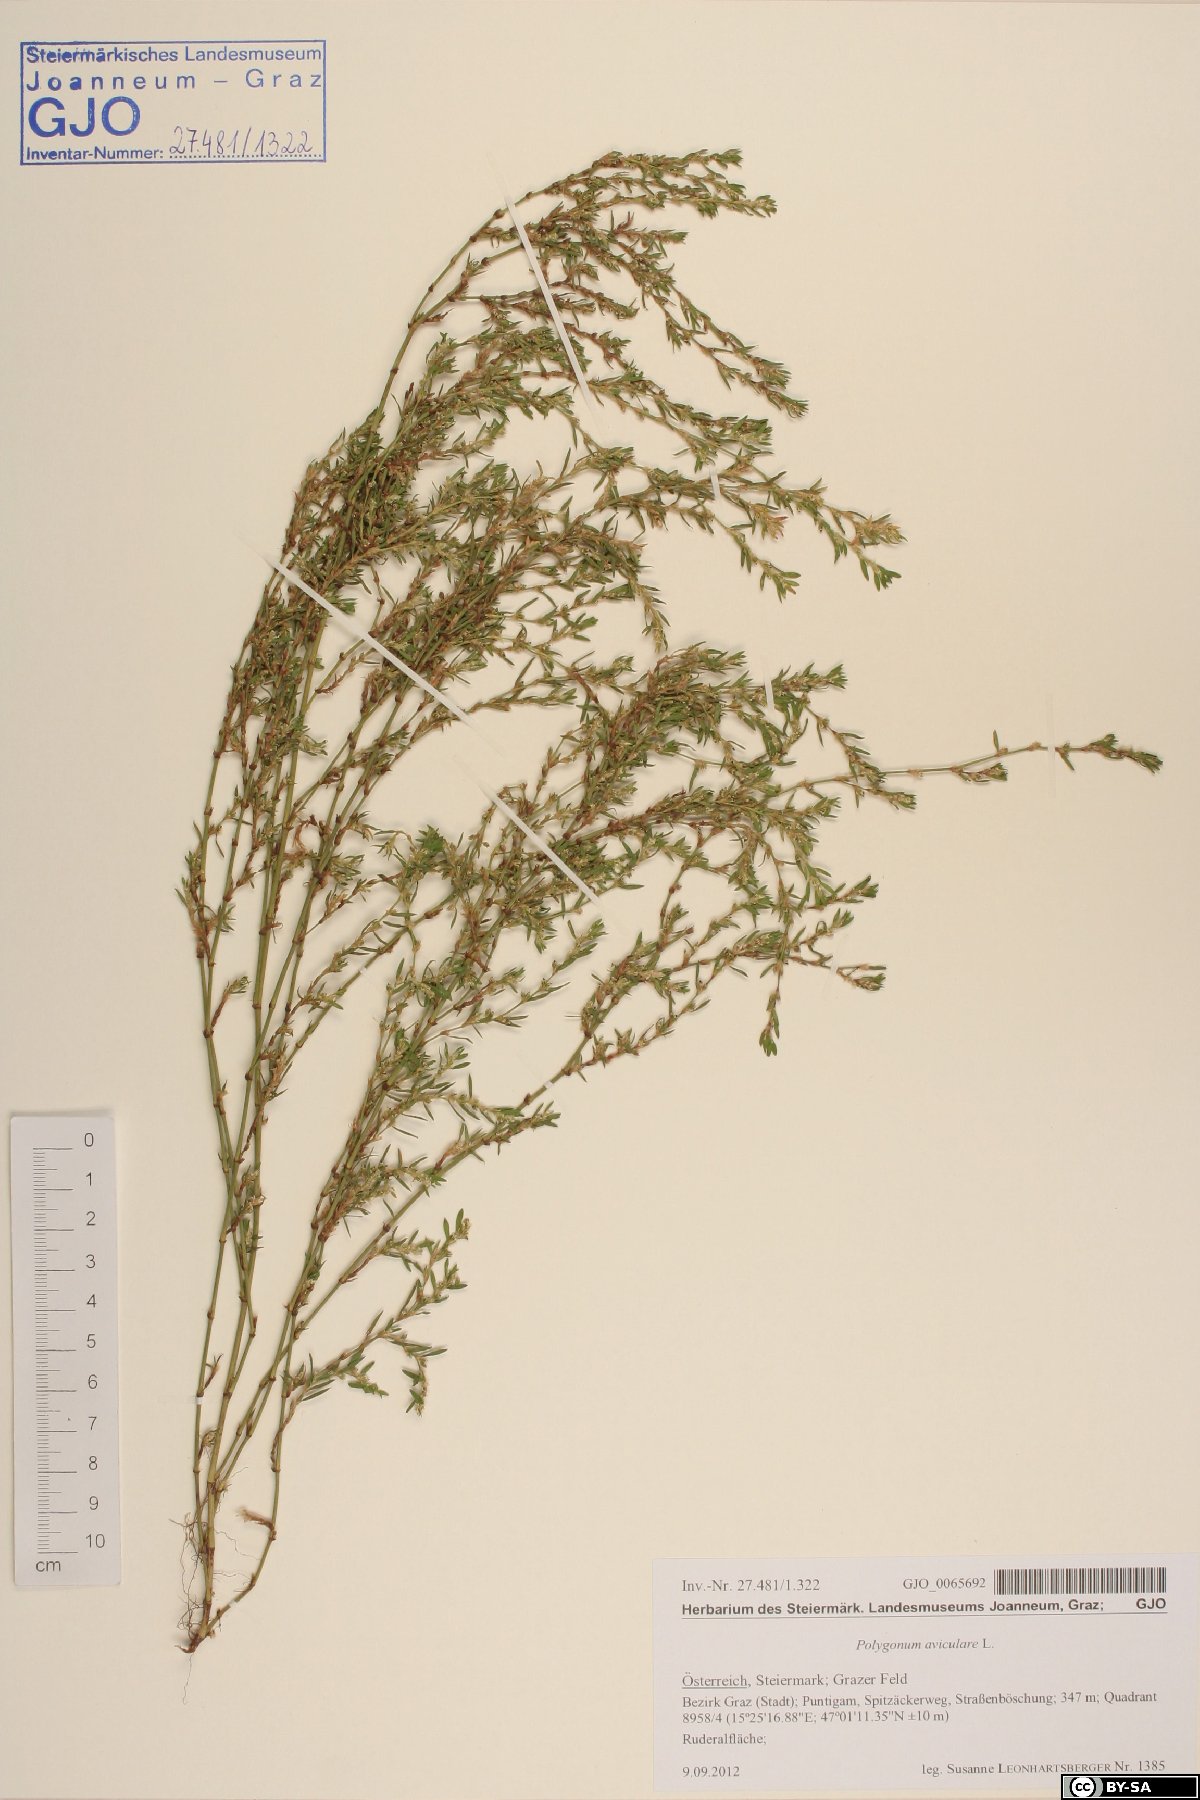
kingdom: Plantae
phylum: Tracheophyta
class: Magnoliopsida
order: Caryophyllales
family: Polygonaceae
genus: Polygonum
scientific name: Polygonum aviculare
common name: Prostrate knotweed
